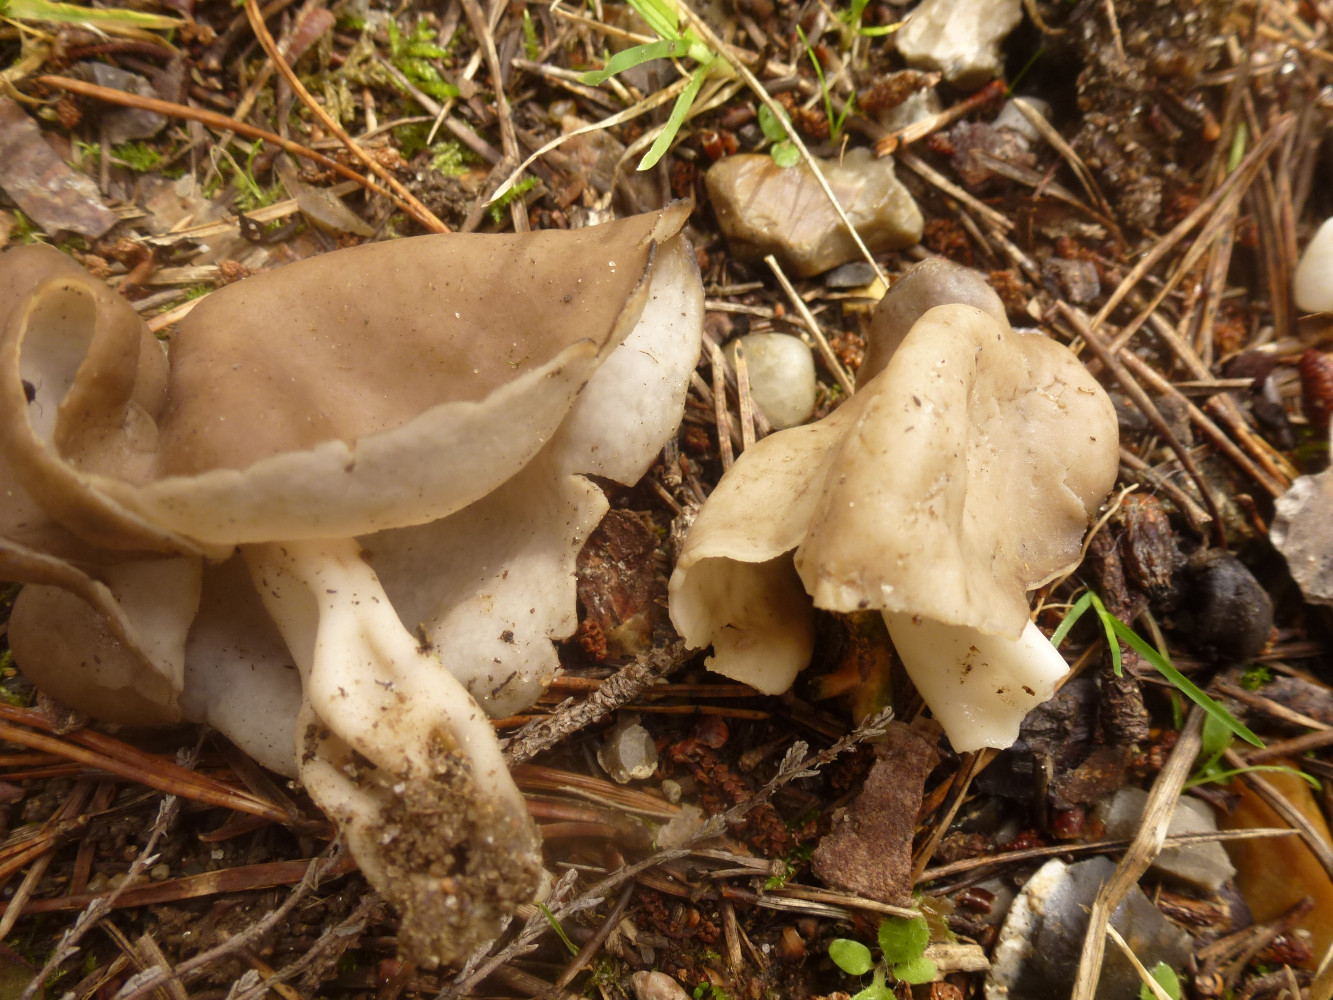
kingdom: Fungi
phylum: Ascomycota
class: Pezizomycetes
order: Pezizales
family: Helvellaceae
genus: Helvella
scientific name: Helvella
